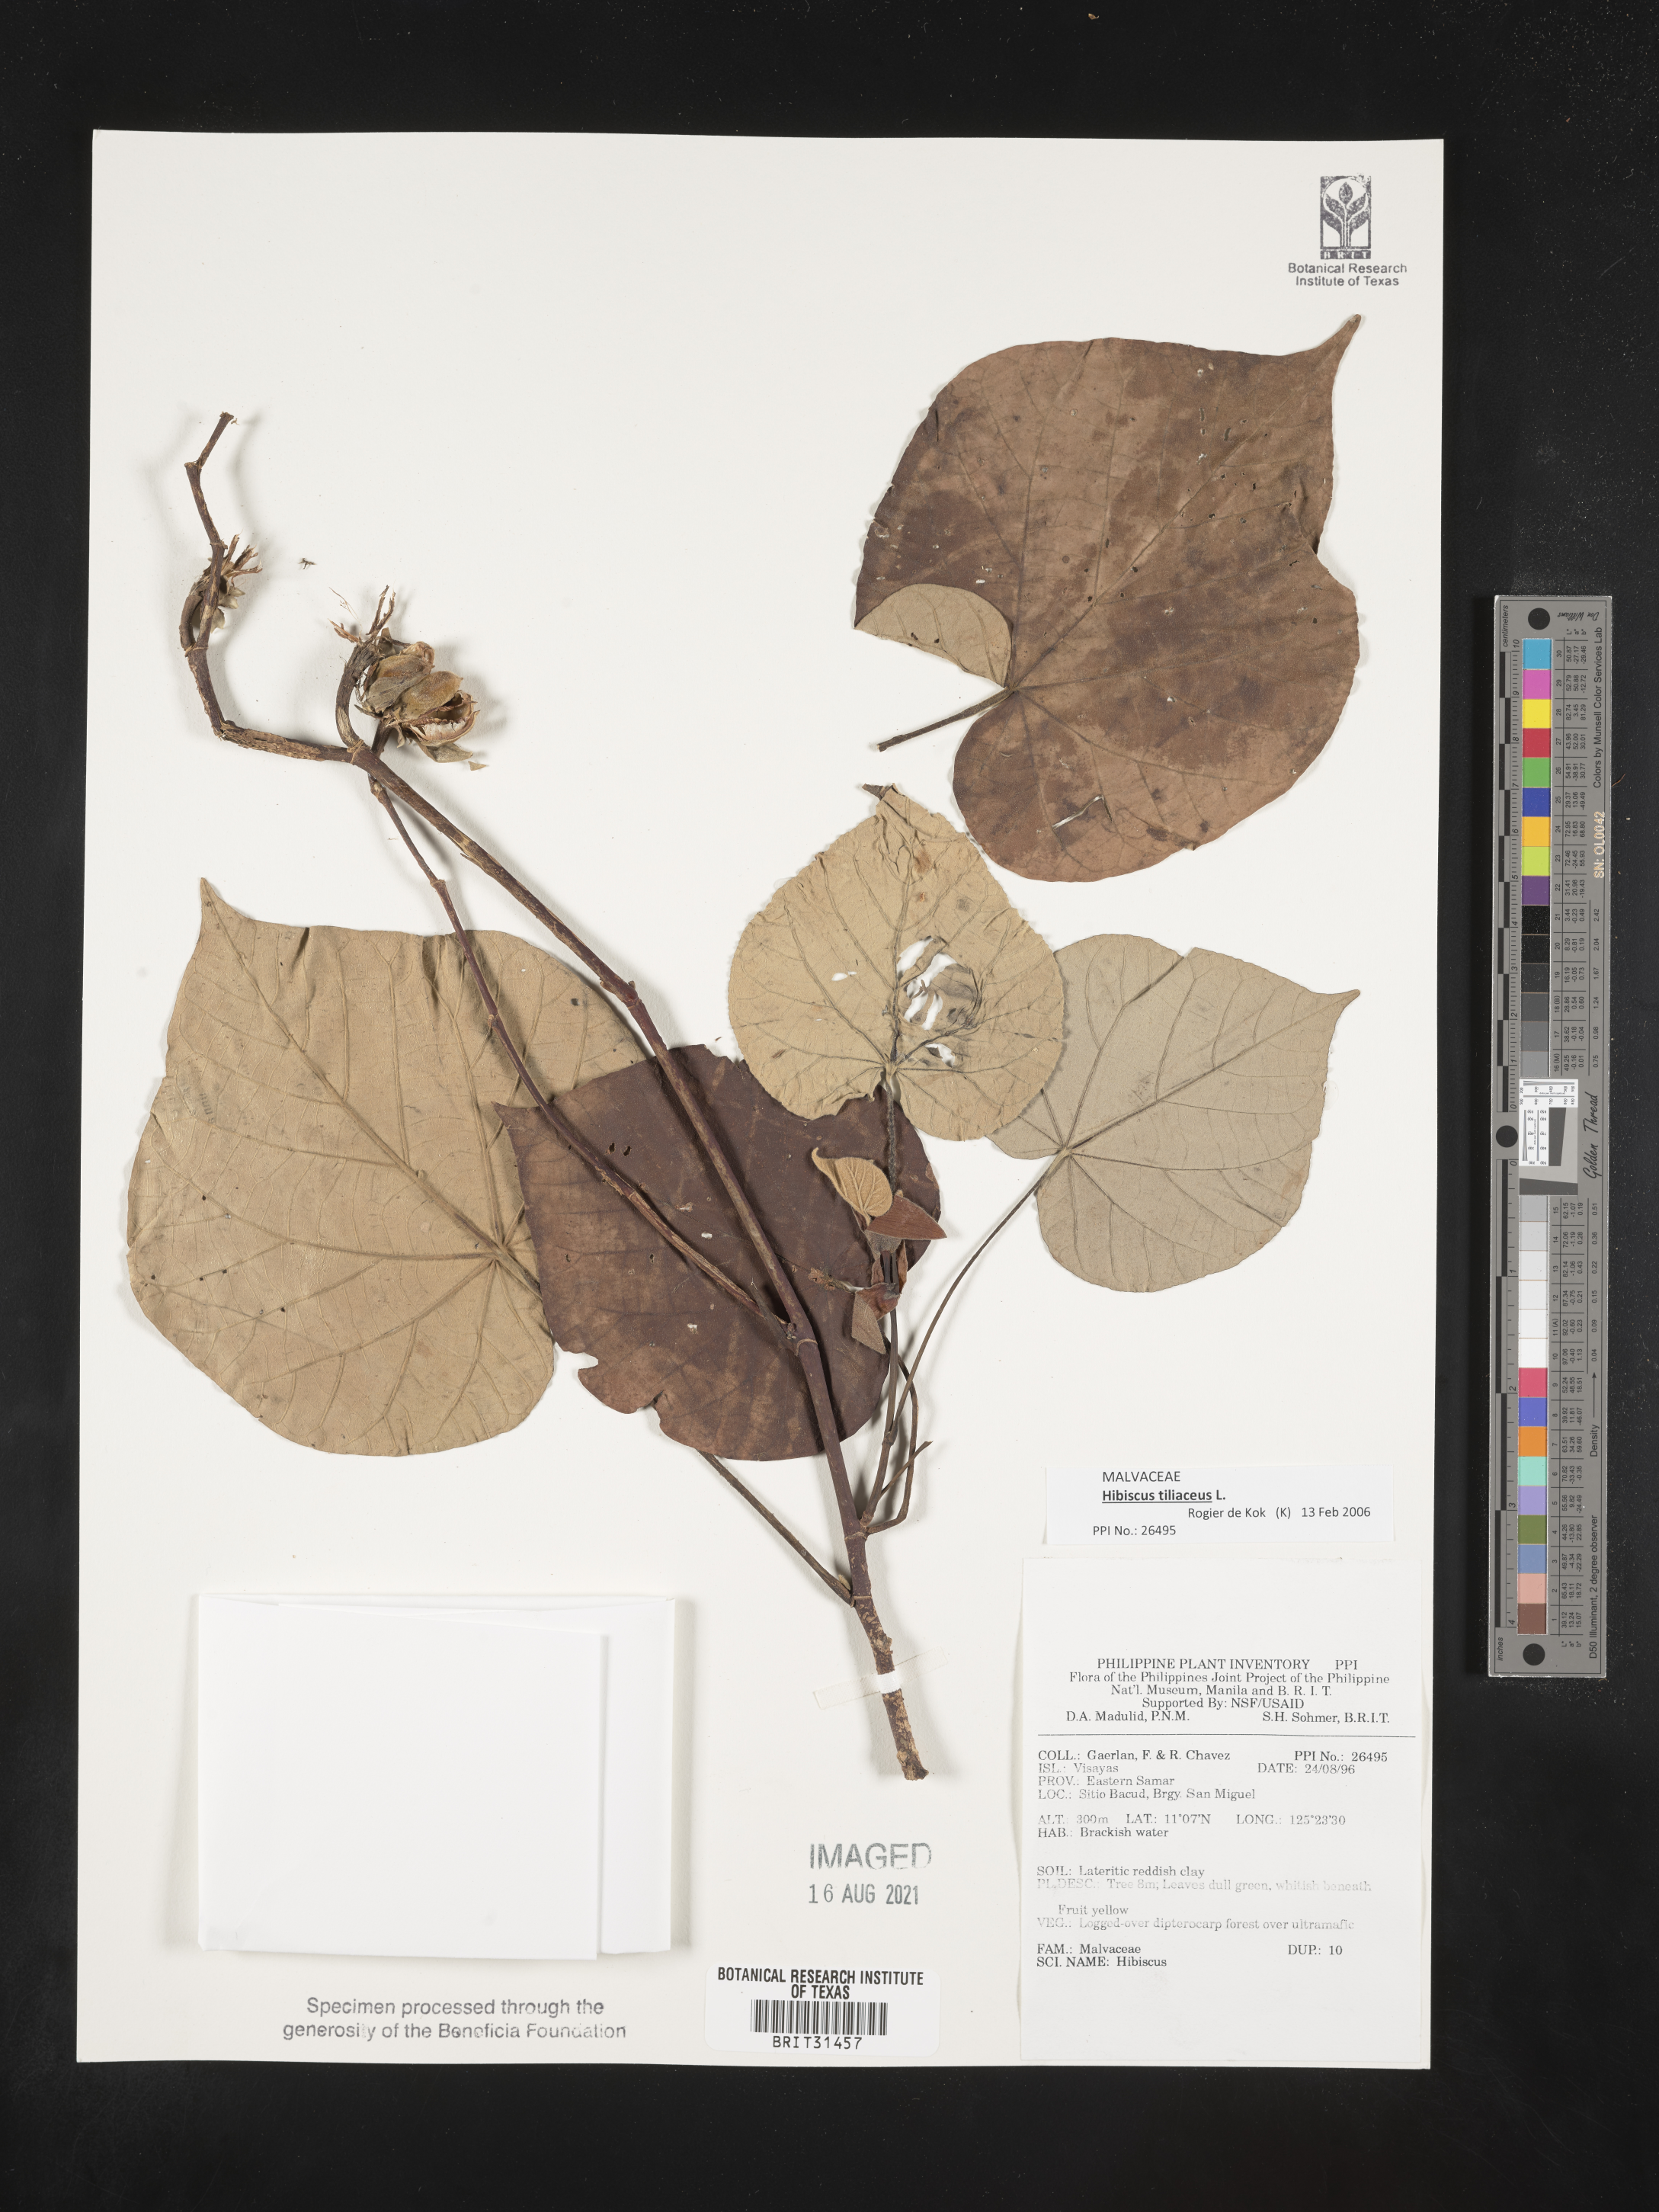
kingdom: Plantae
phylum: Tracheophyta
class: Magnoliopsida
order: Malvales
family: Malvaceae
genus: Hibiscus
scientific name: Hibiscus
